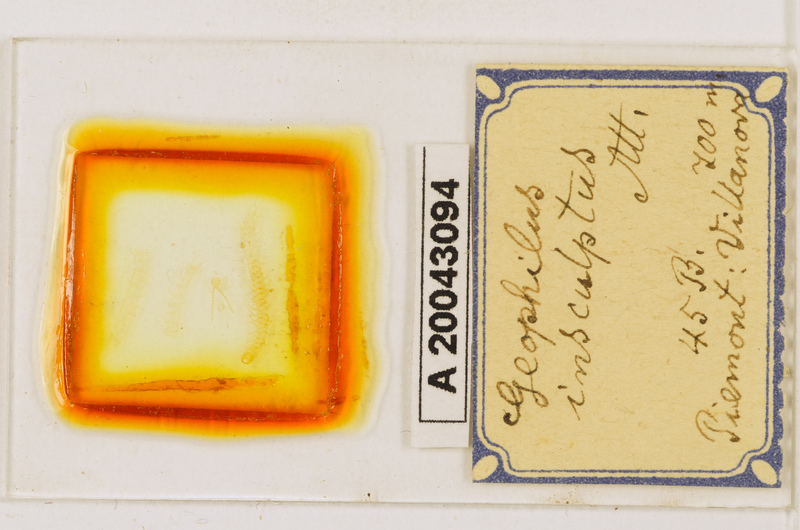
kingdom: Animalia
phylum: Arthropoda
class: Chilopoda
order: Geophilomorpha
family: Geophilidae
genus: Geophilus
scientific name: Geophilus insculptus
